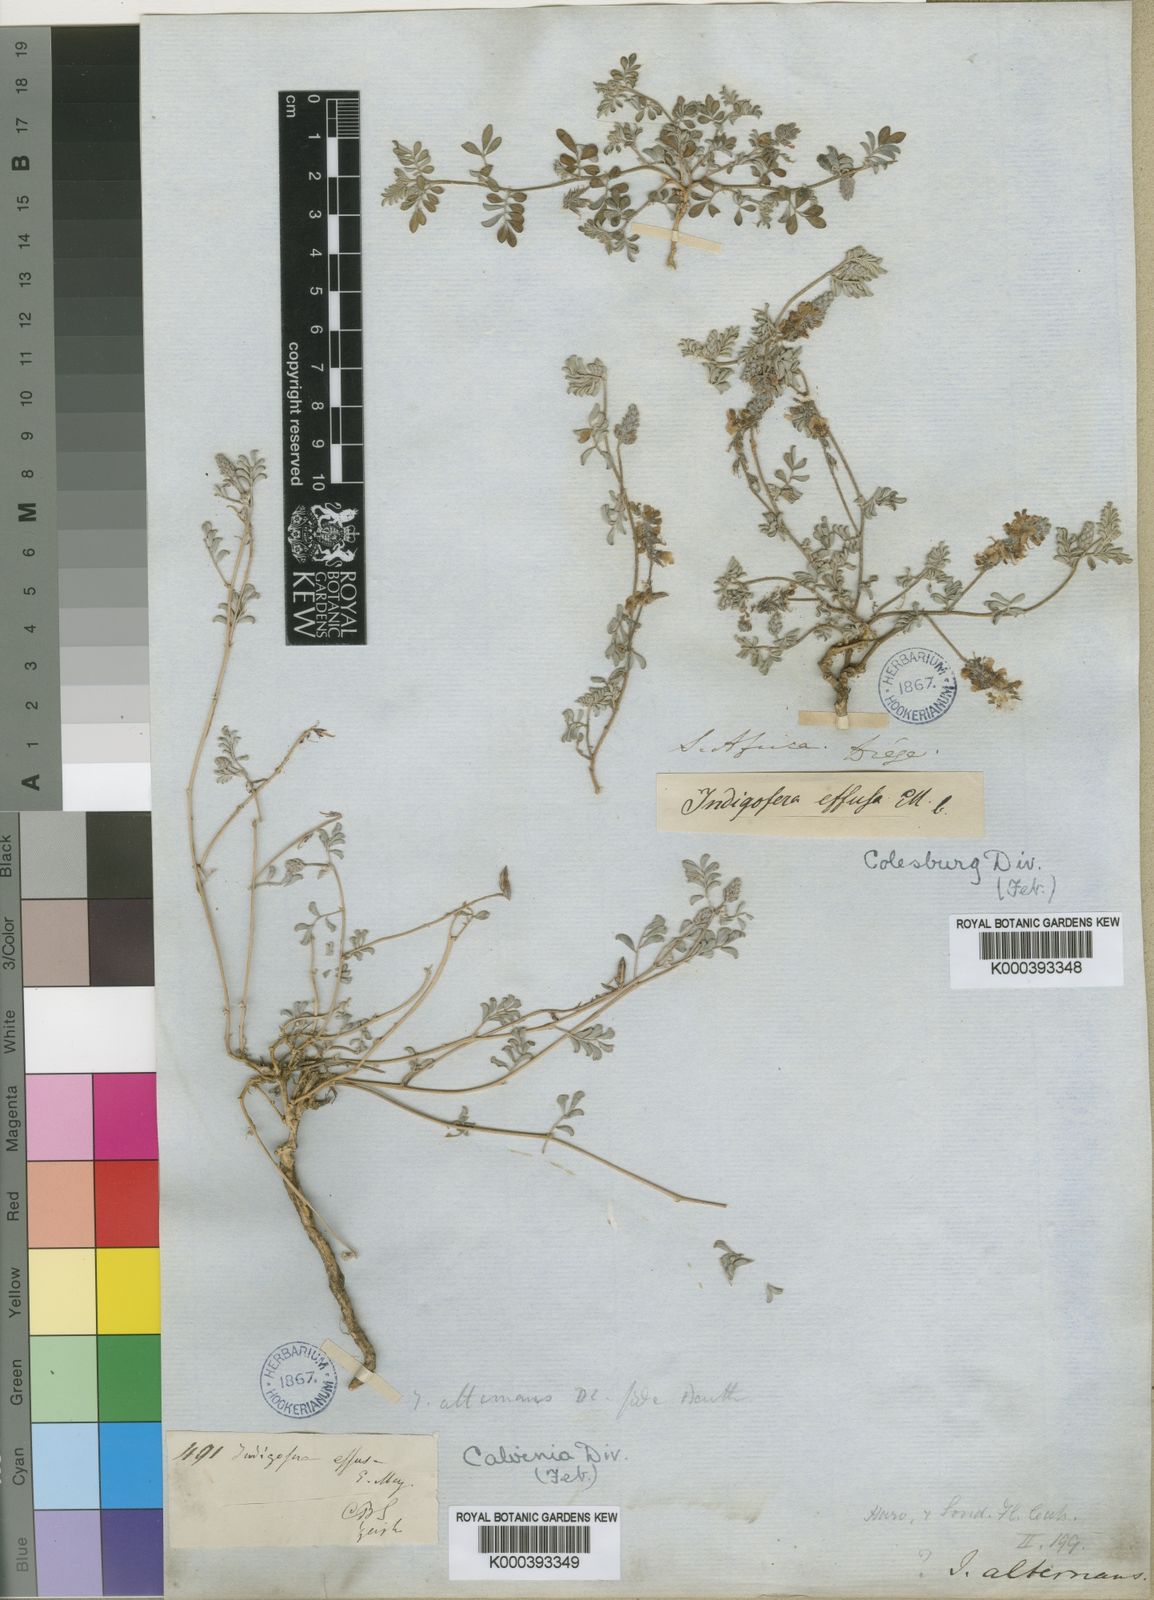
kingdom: Plantae
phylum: Tracheophyta
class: Magnoliopsida
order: Fabales
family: Fabaceae
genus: Indigofera
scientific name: Indigofera alternans
